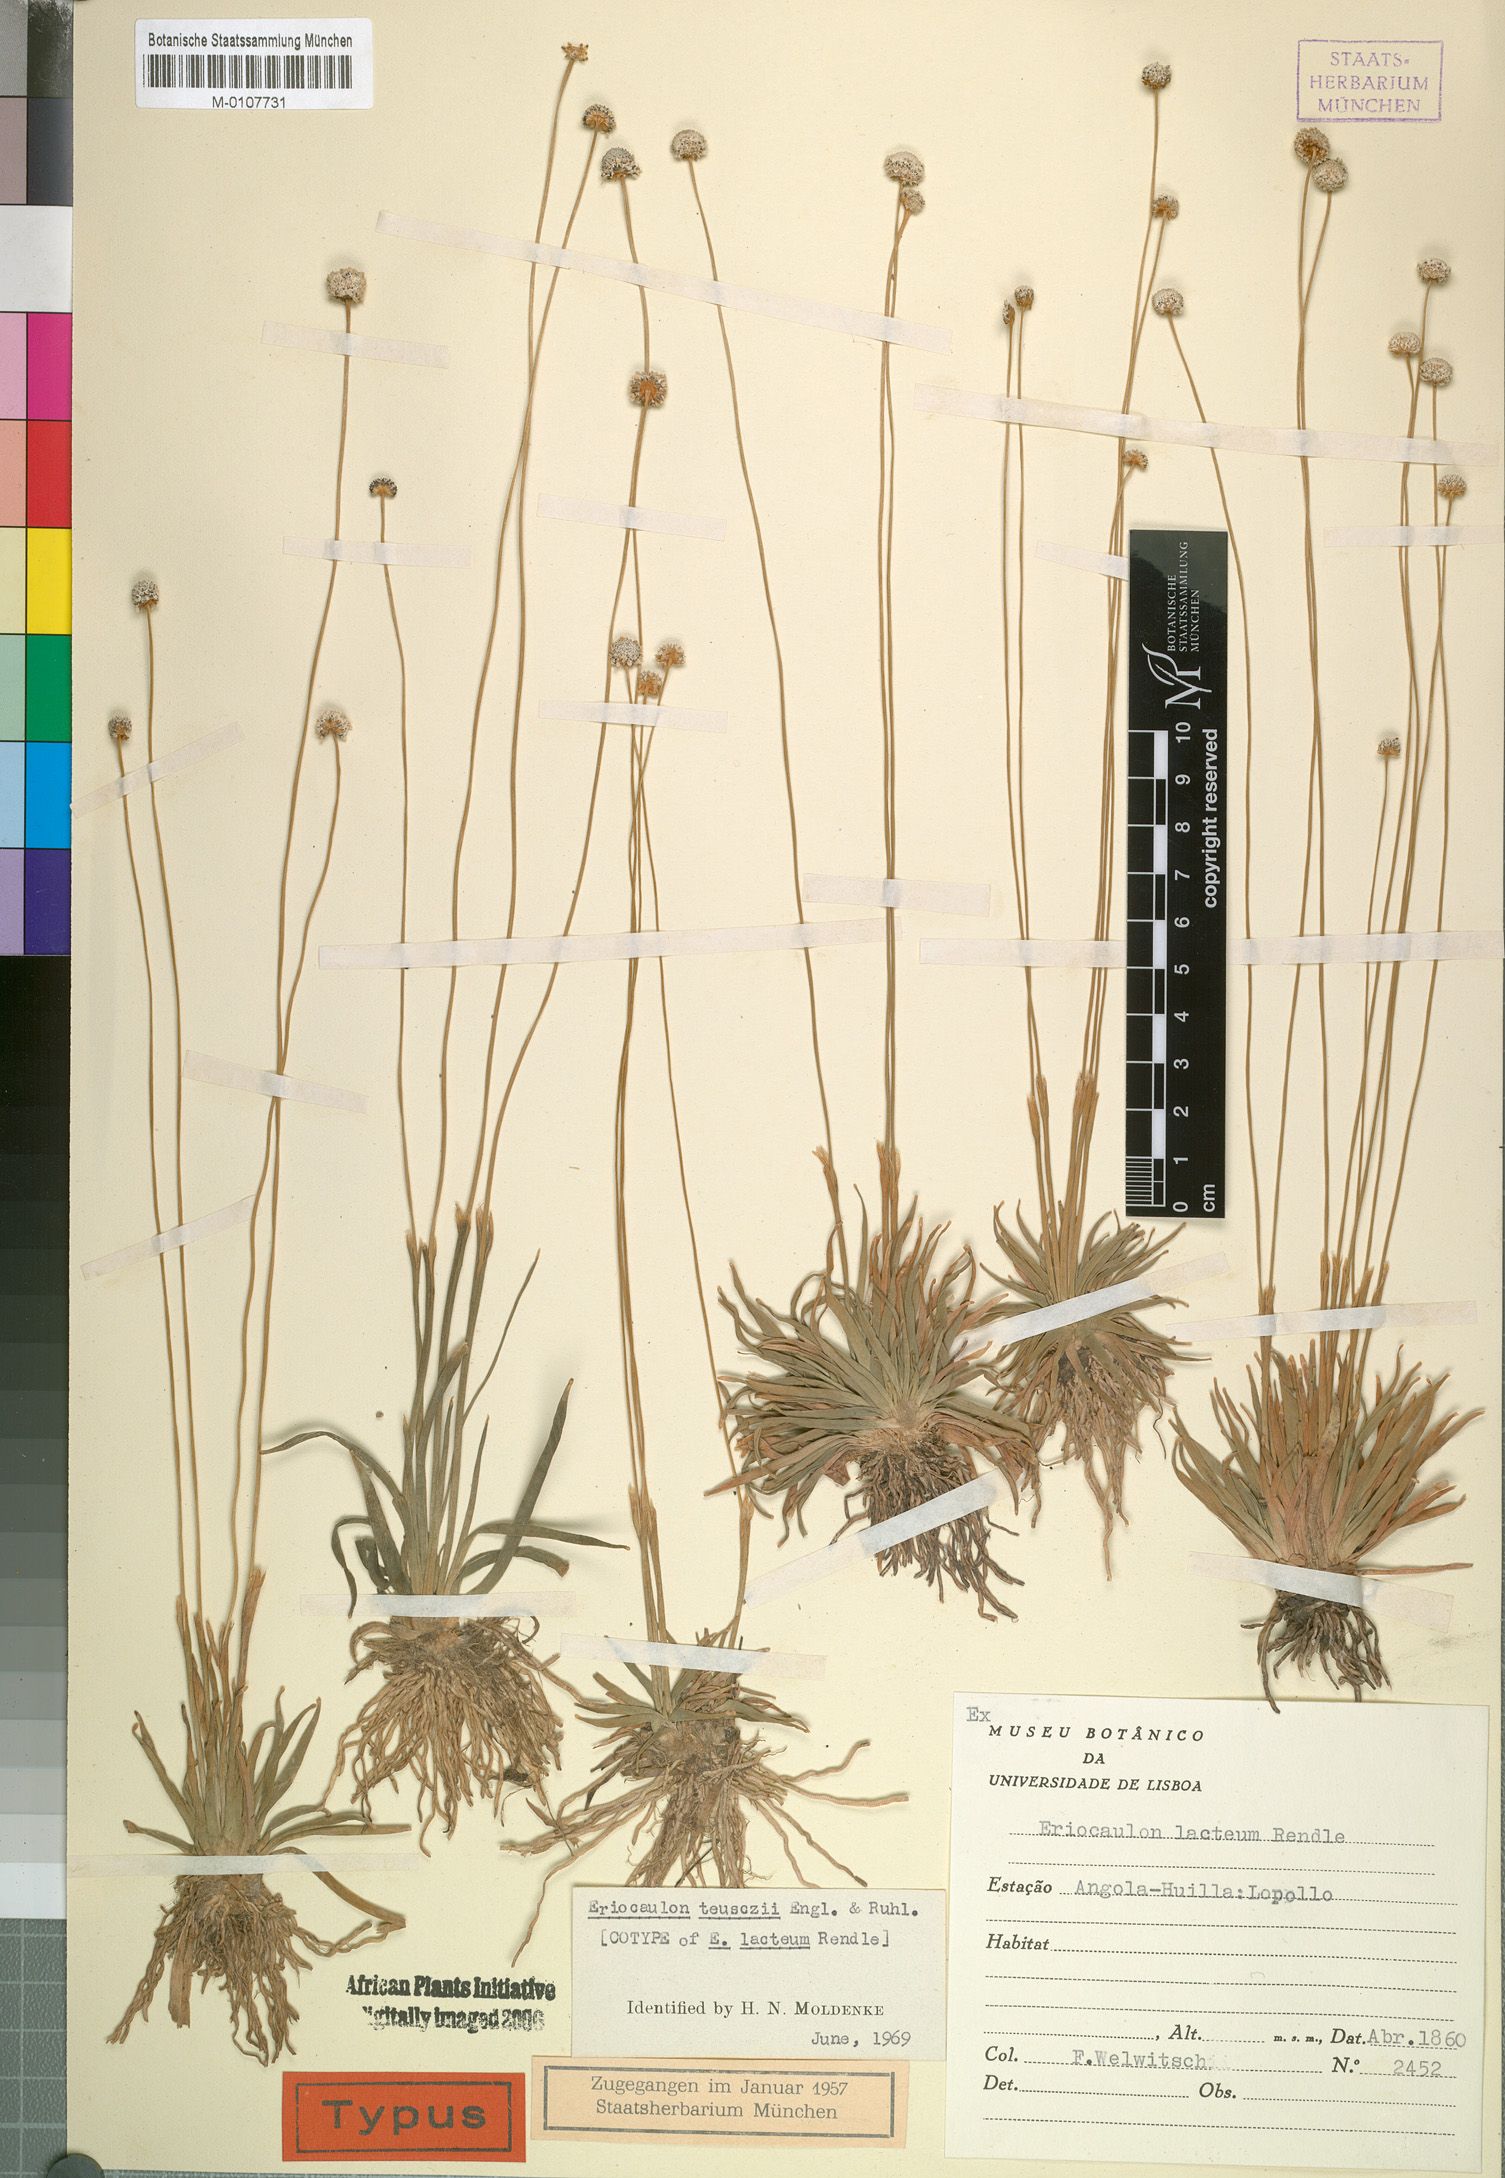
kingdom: Plantae
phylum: Tracheophyta
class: Liliopsida
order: Poales
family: Eriocaulaceae
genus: Eriocaulon
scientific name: Eriocaulon teusczii
